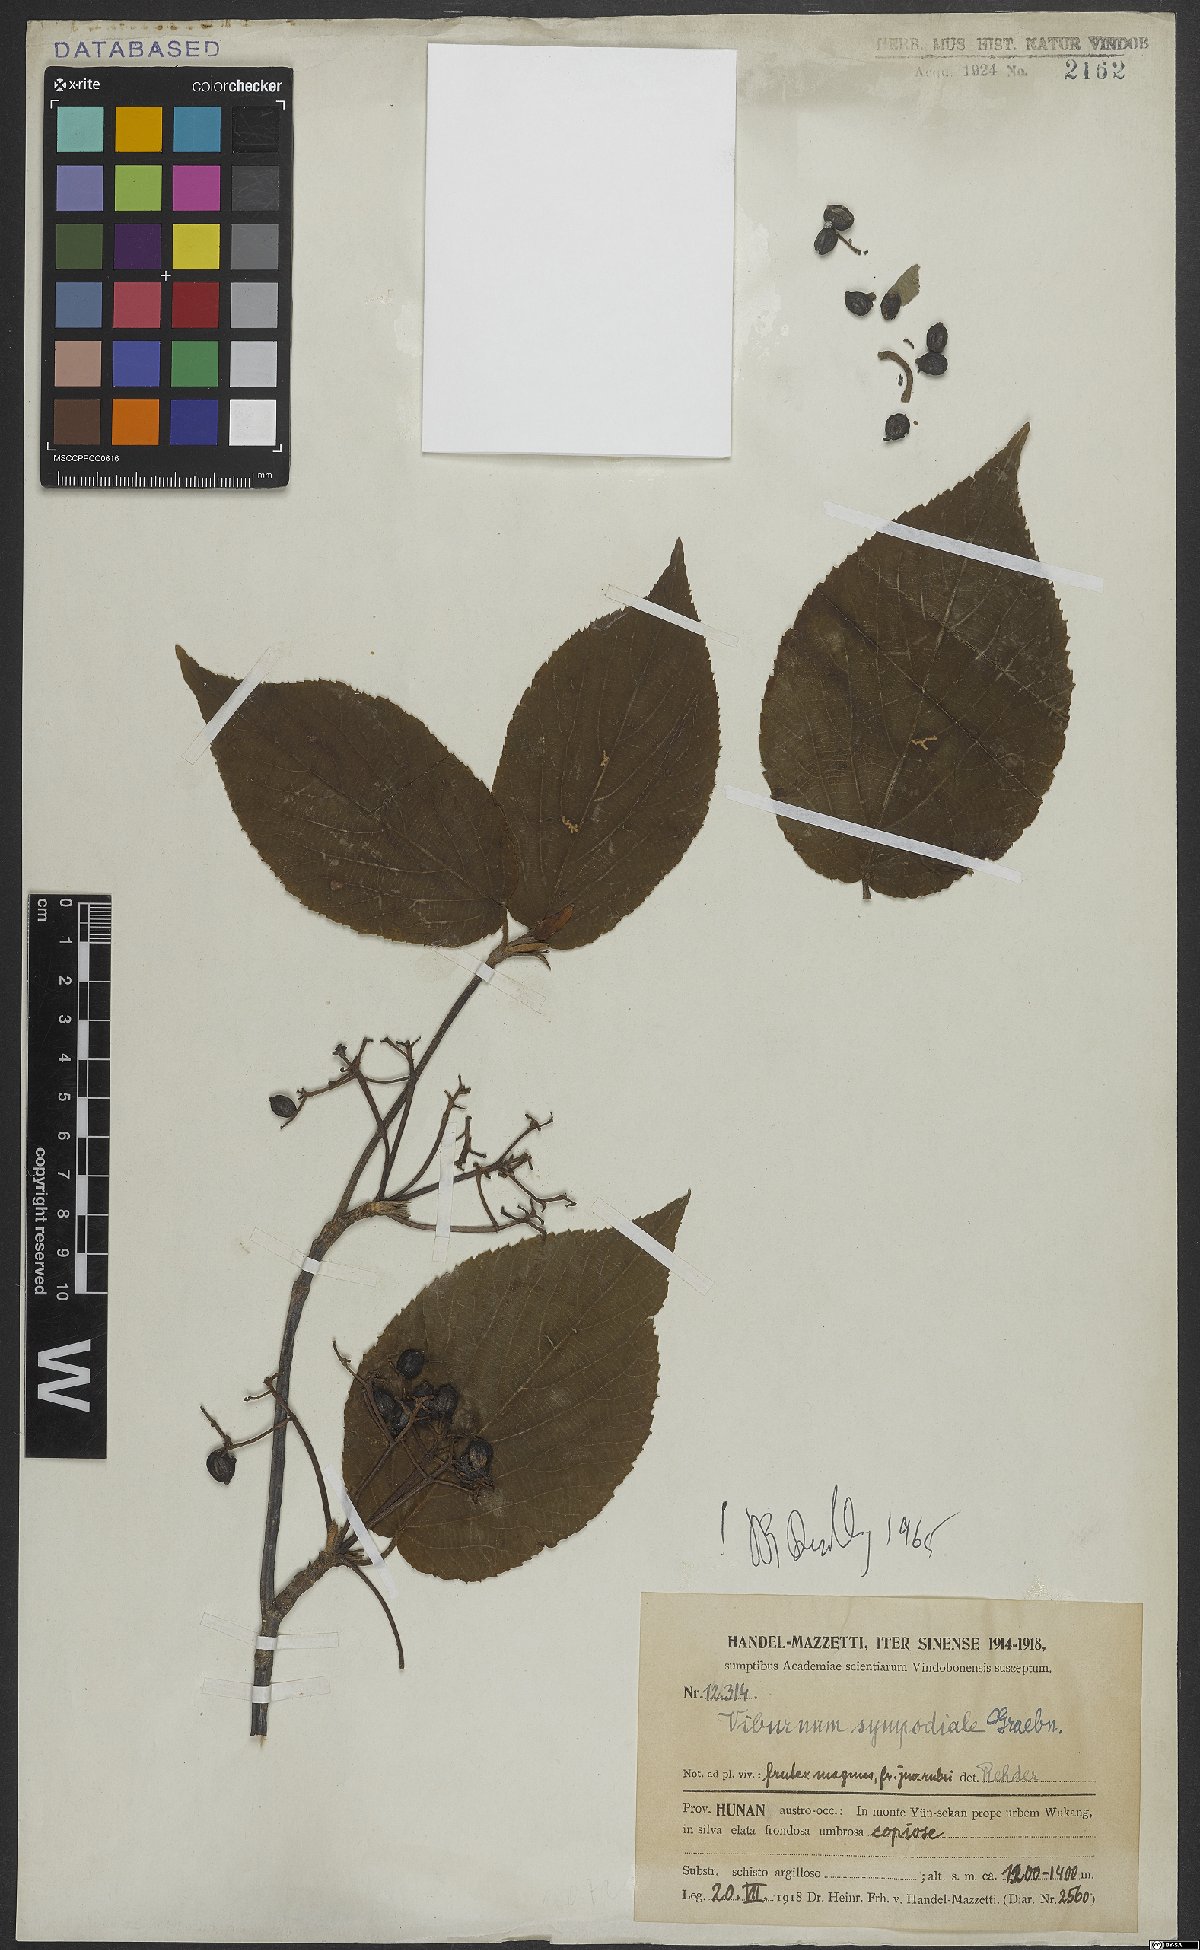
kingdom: Plantae
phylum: Tracheophyta
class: Magnoliopsida
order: Dipsacales
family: Viburnaceae
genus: Viburnum
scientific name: Viburnum
